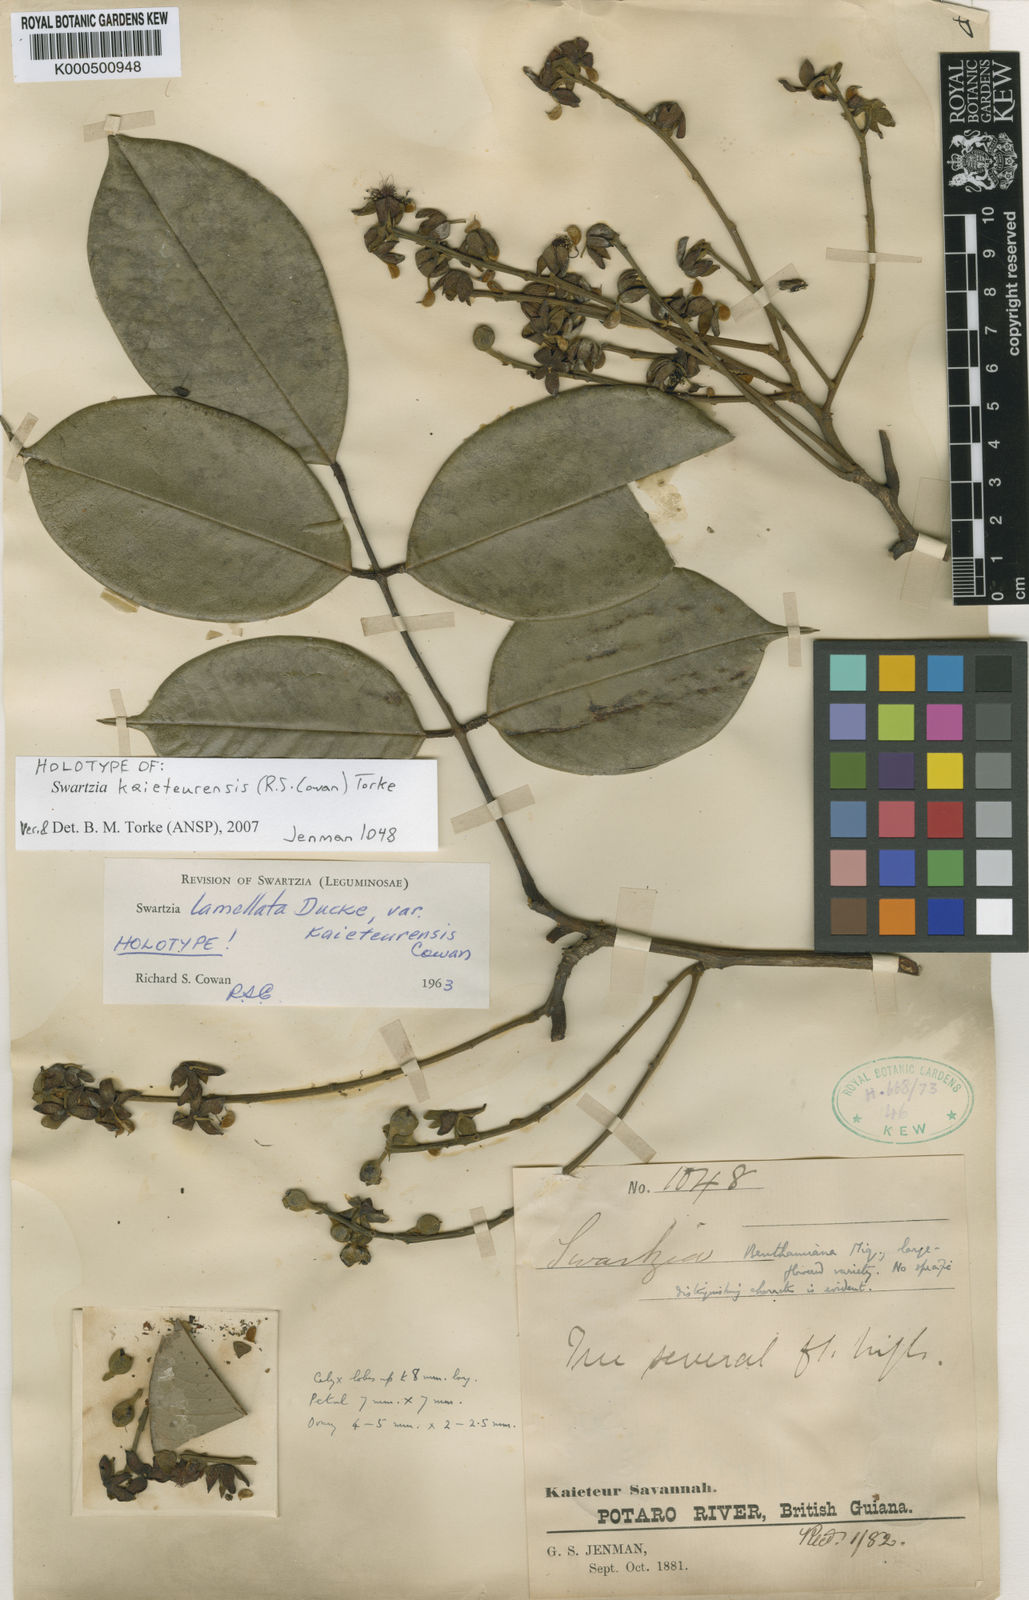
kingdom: Plantae
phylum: Tracheophyta
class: Magnoliopsida
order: Fabales
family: Fabaceae
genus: Swartzia
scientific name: Swartzia kaieteurensis
